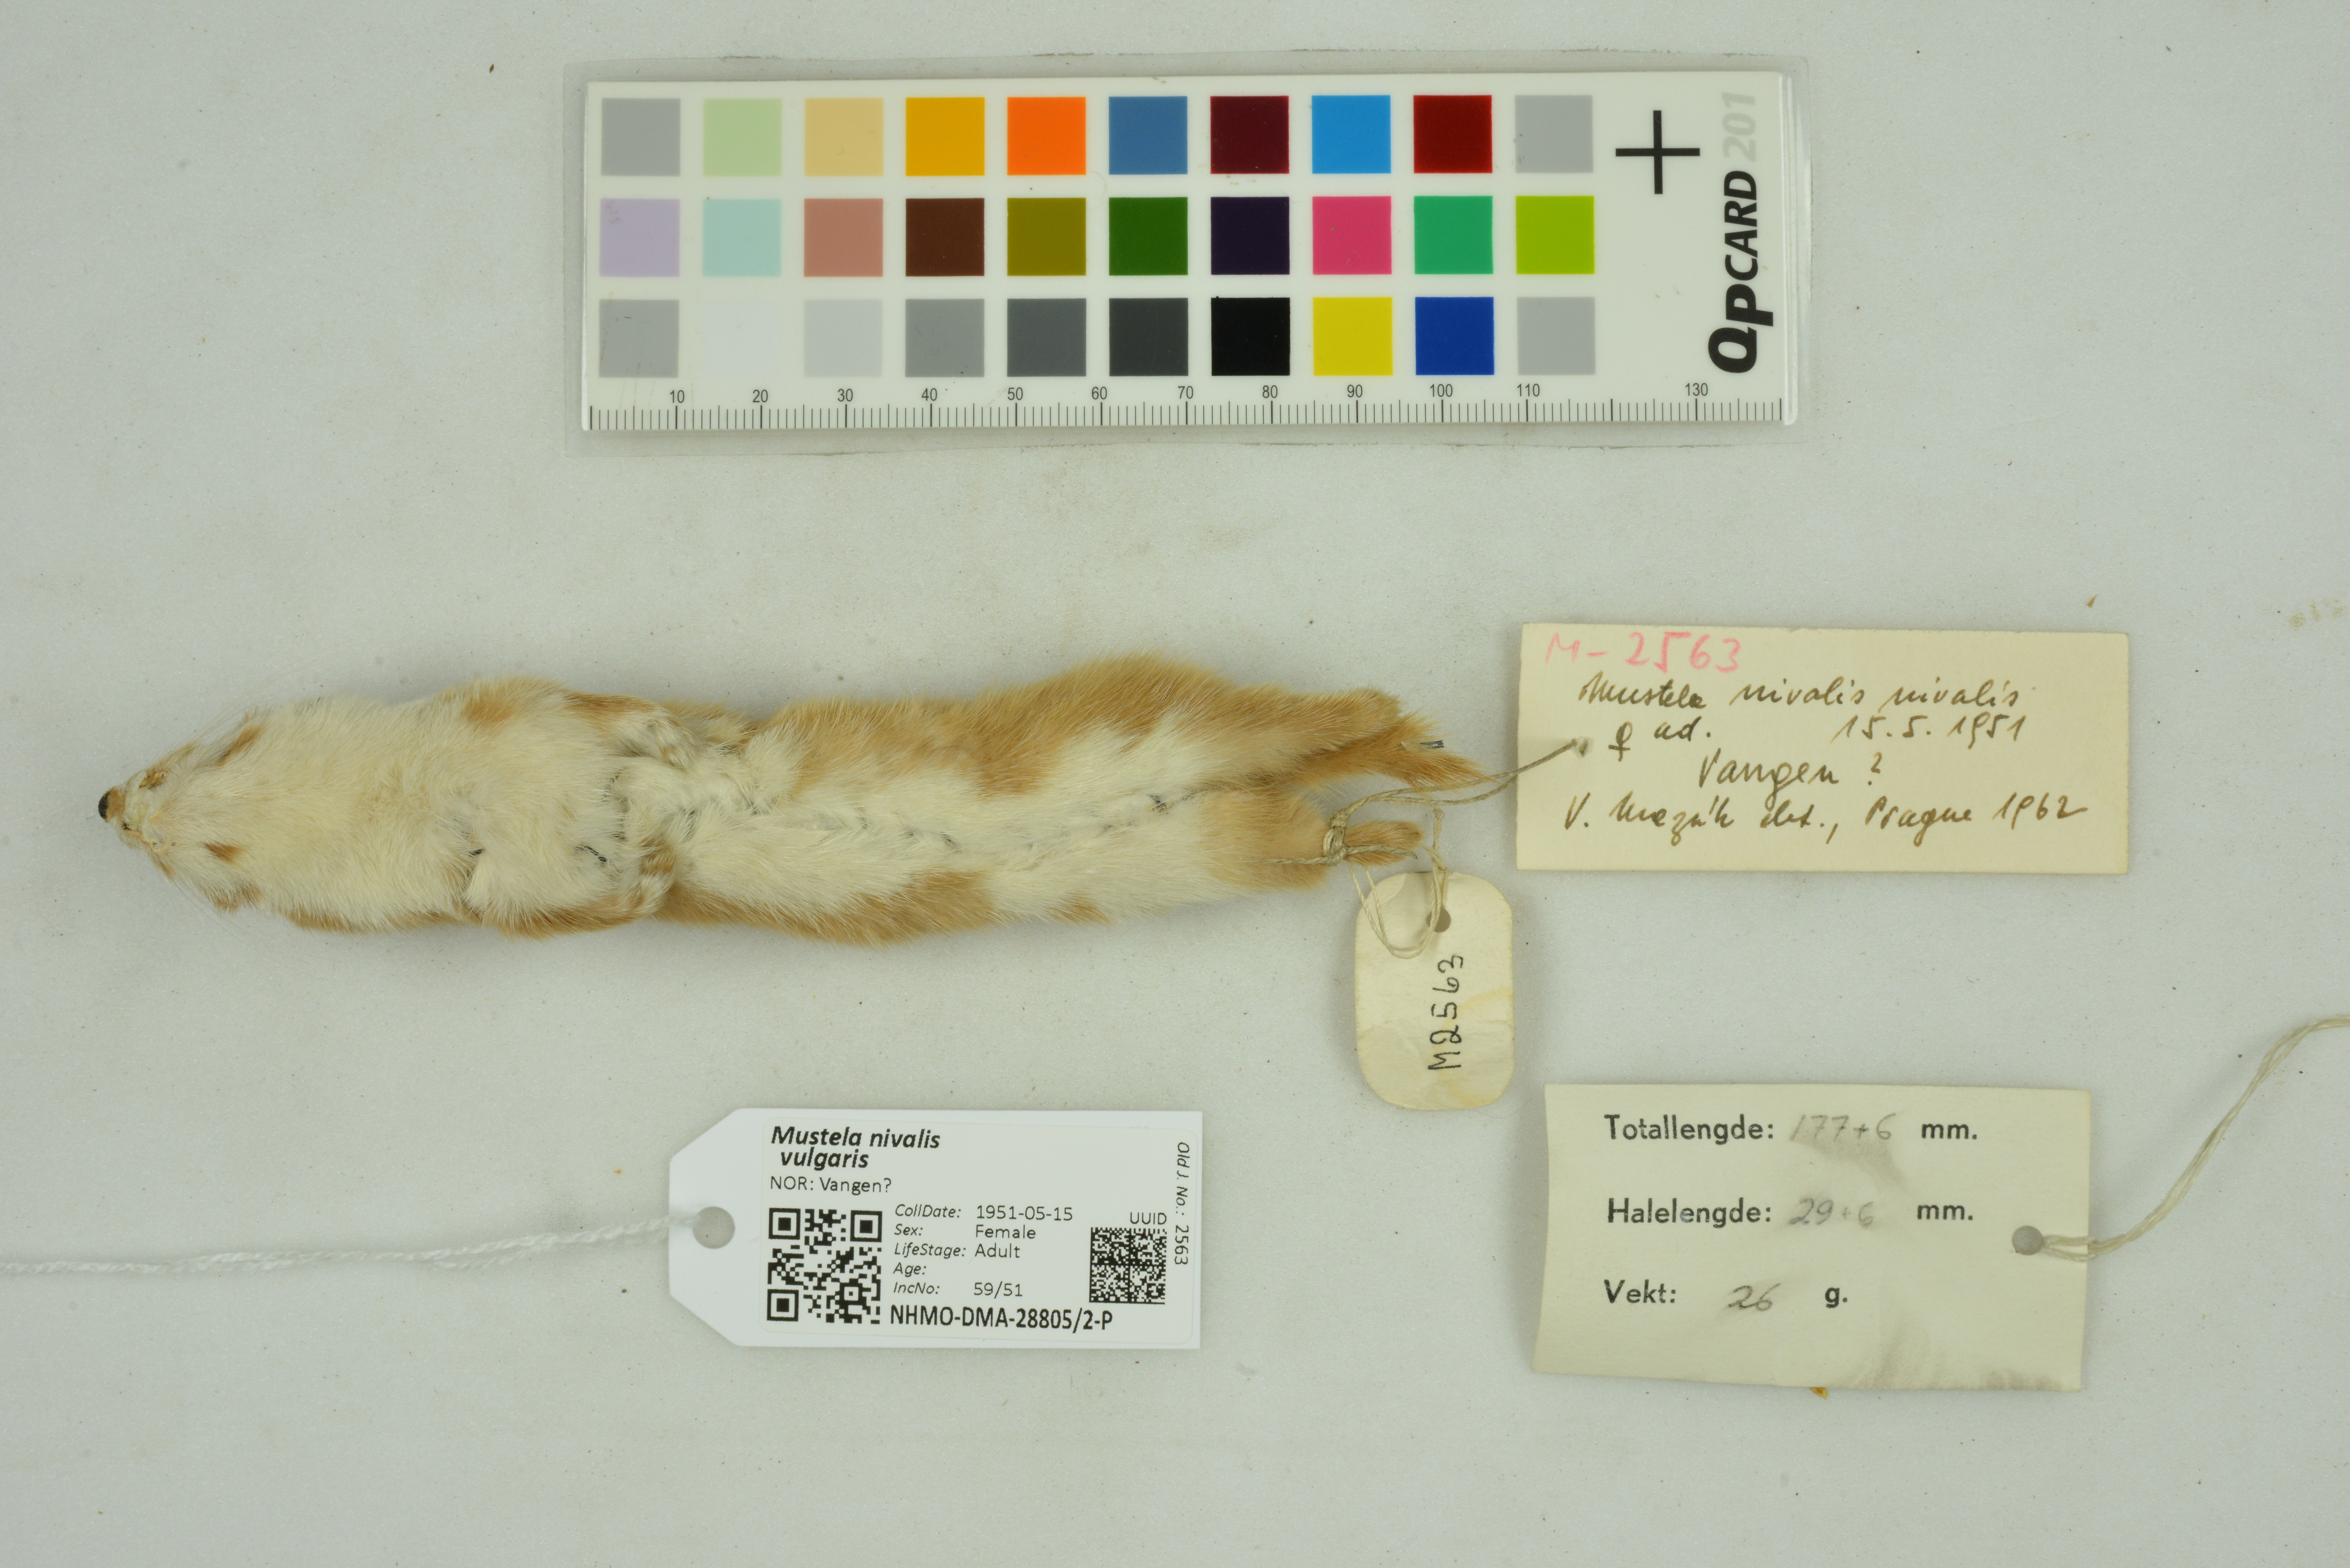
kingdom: Animalia
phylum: Chordata
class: Mammalia
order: Carnivora
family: Mustelidae
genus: Mustela
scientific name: Mustela nivalis
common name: Least weasel
